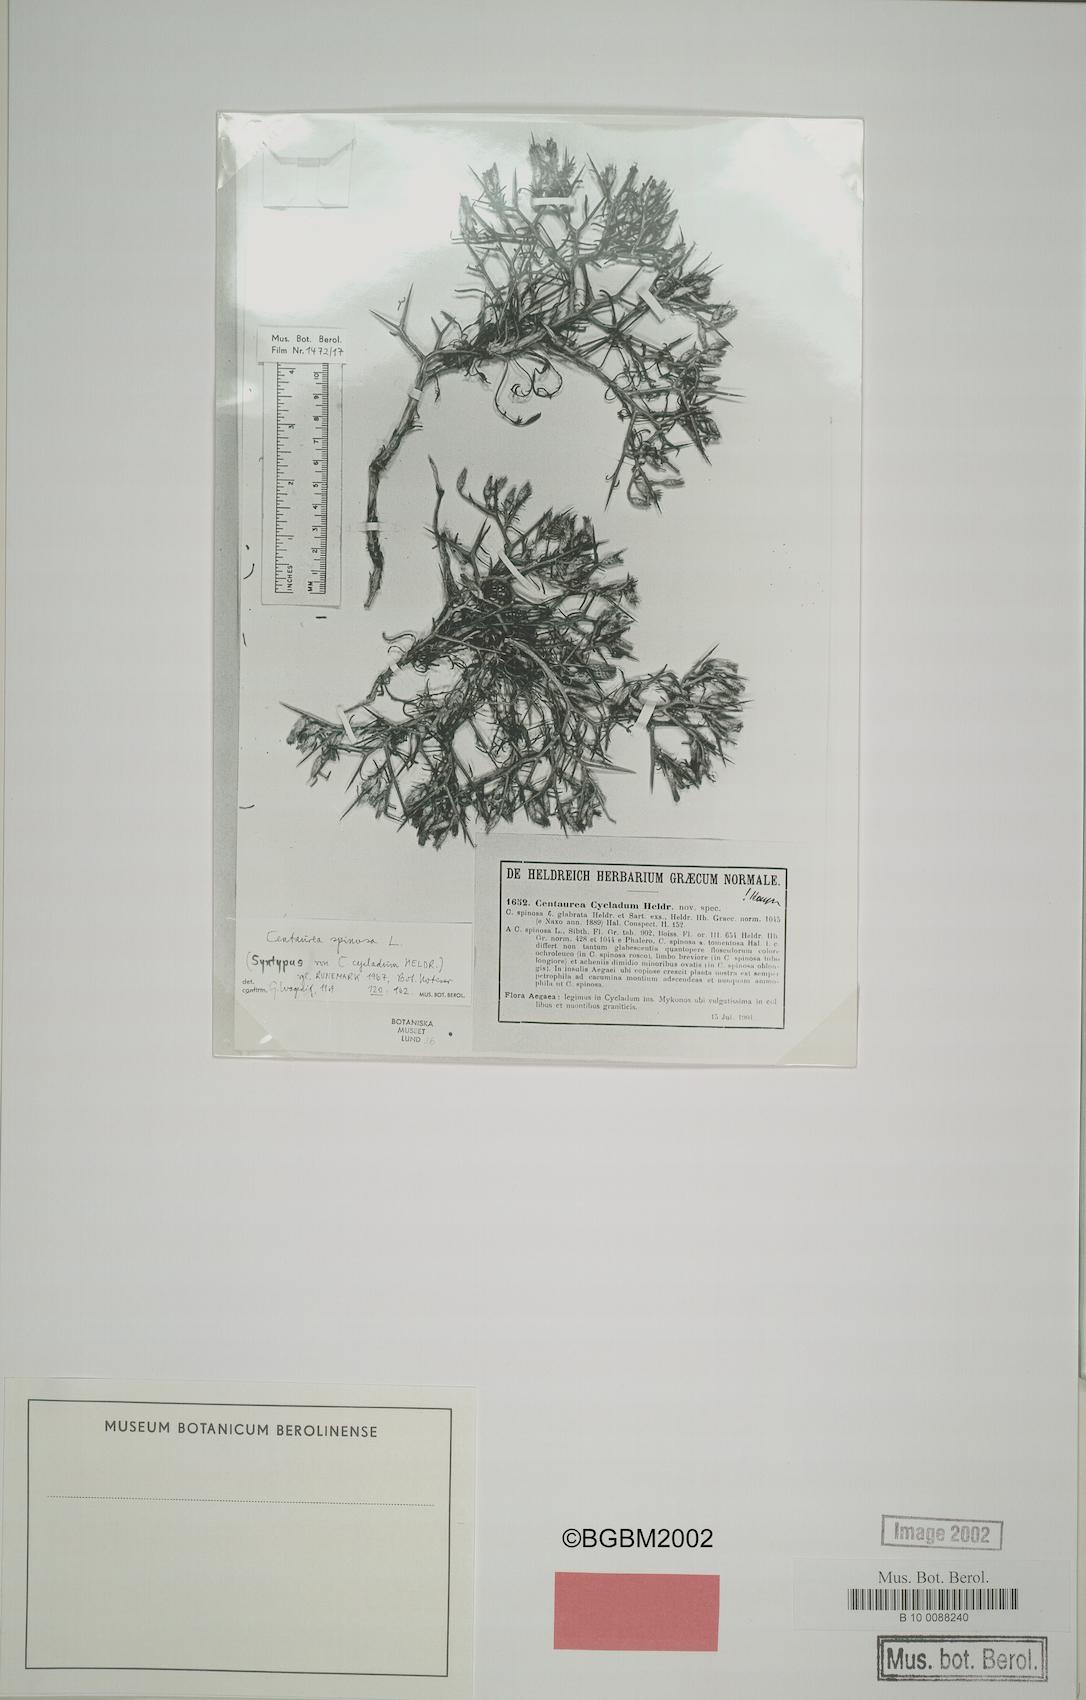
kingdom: Plantae
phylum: Tracheophyta
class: Magnoliopsida
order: Asterales
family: Asteraceae
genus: Centaurea
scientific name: Centaurea spinosa
